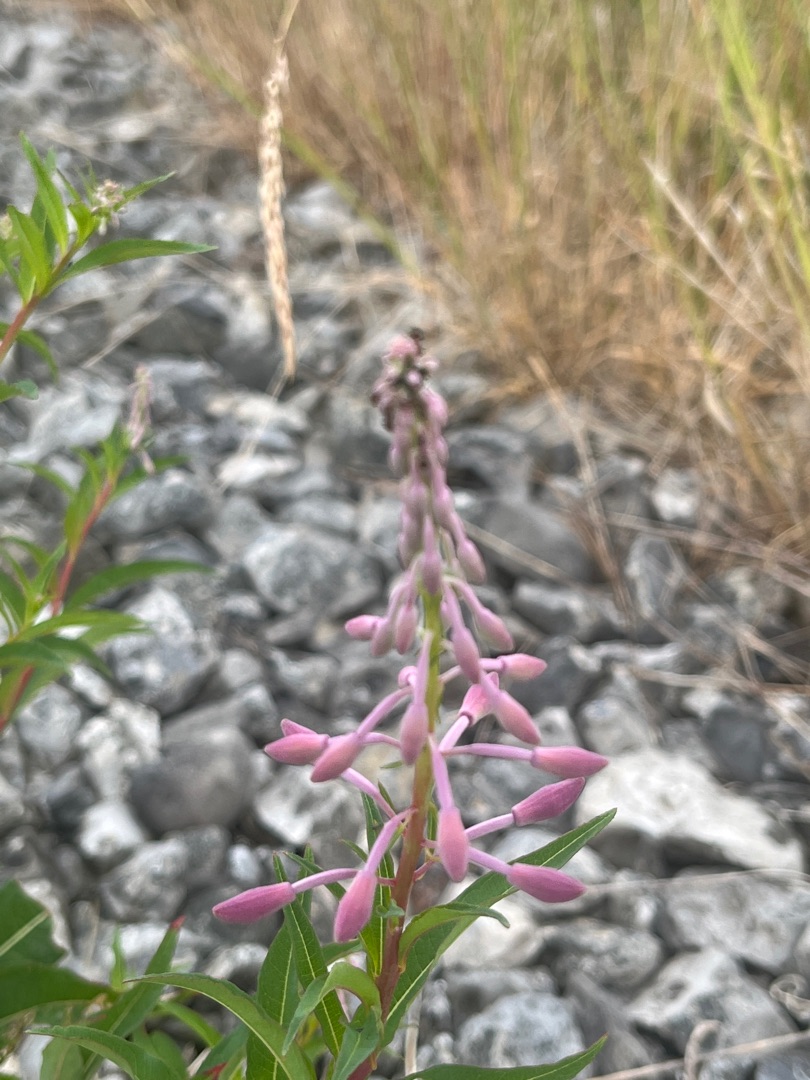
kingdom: Plantae
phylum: Tracheophyta
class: Magnoliopsida
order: Myrtales
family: Onagraceae
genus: Chamaenerion
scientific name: Chamaenerion angustifolium
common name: Gederams
